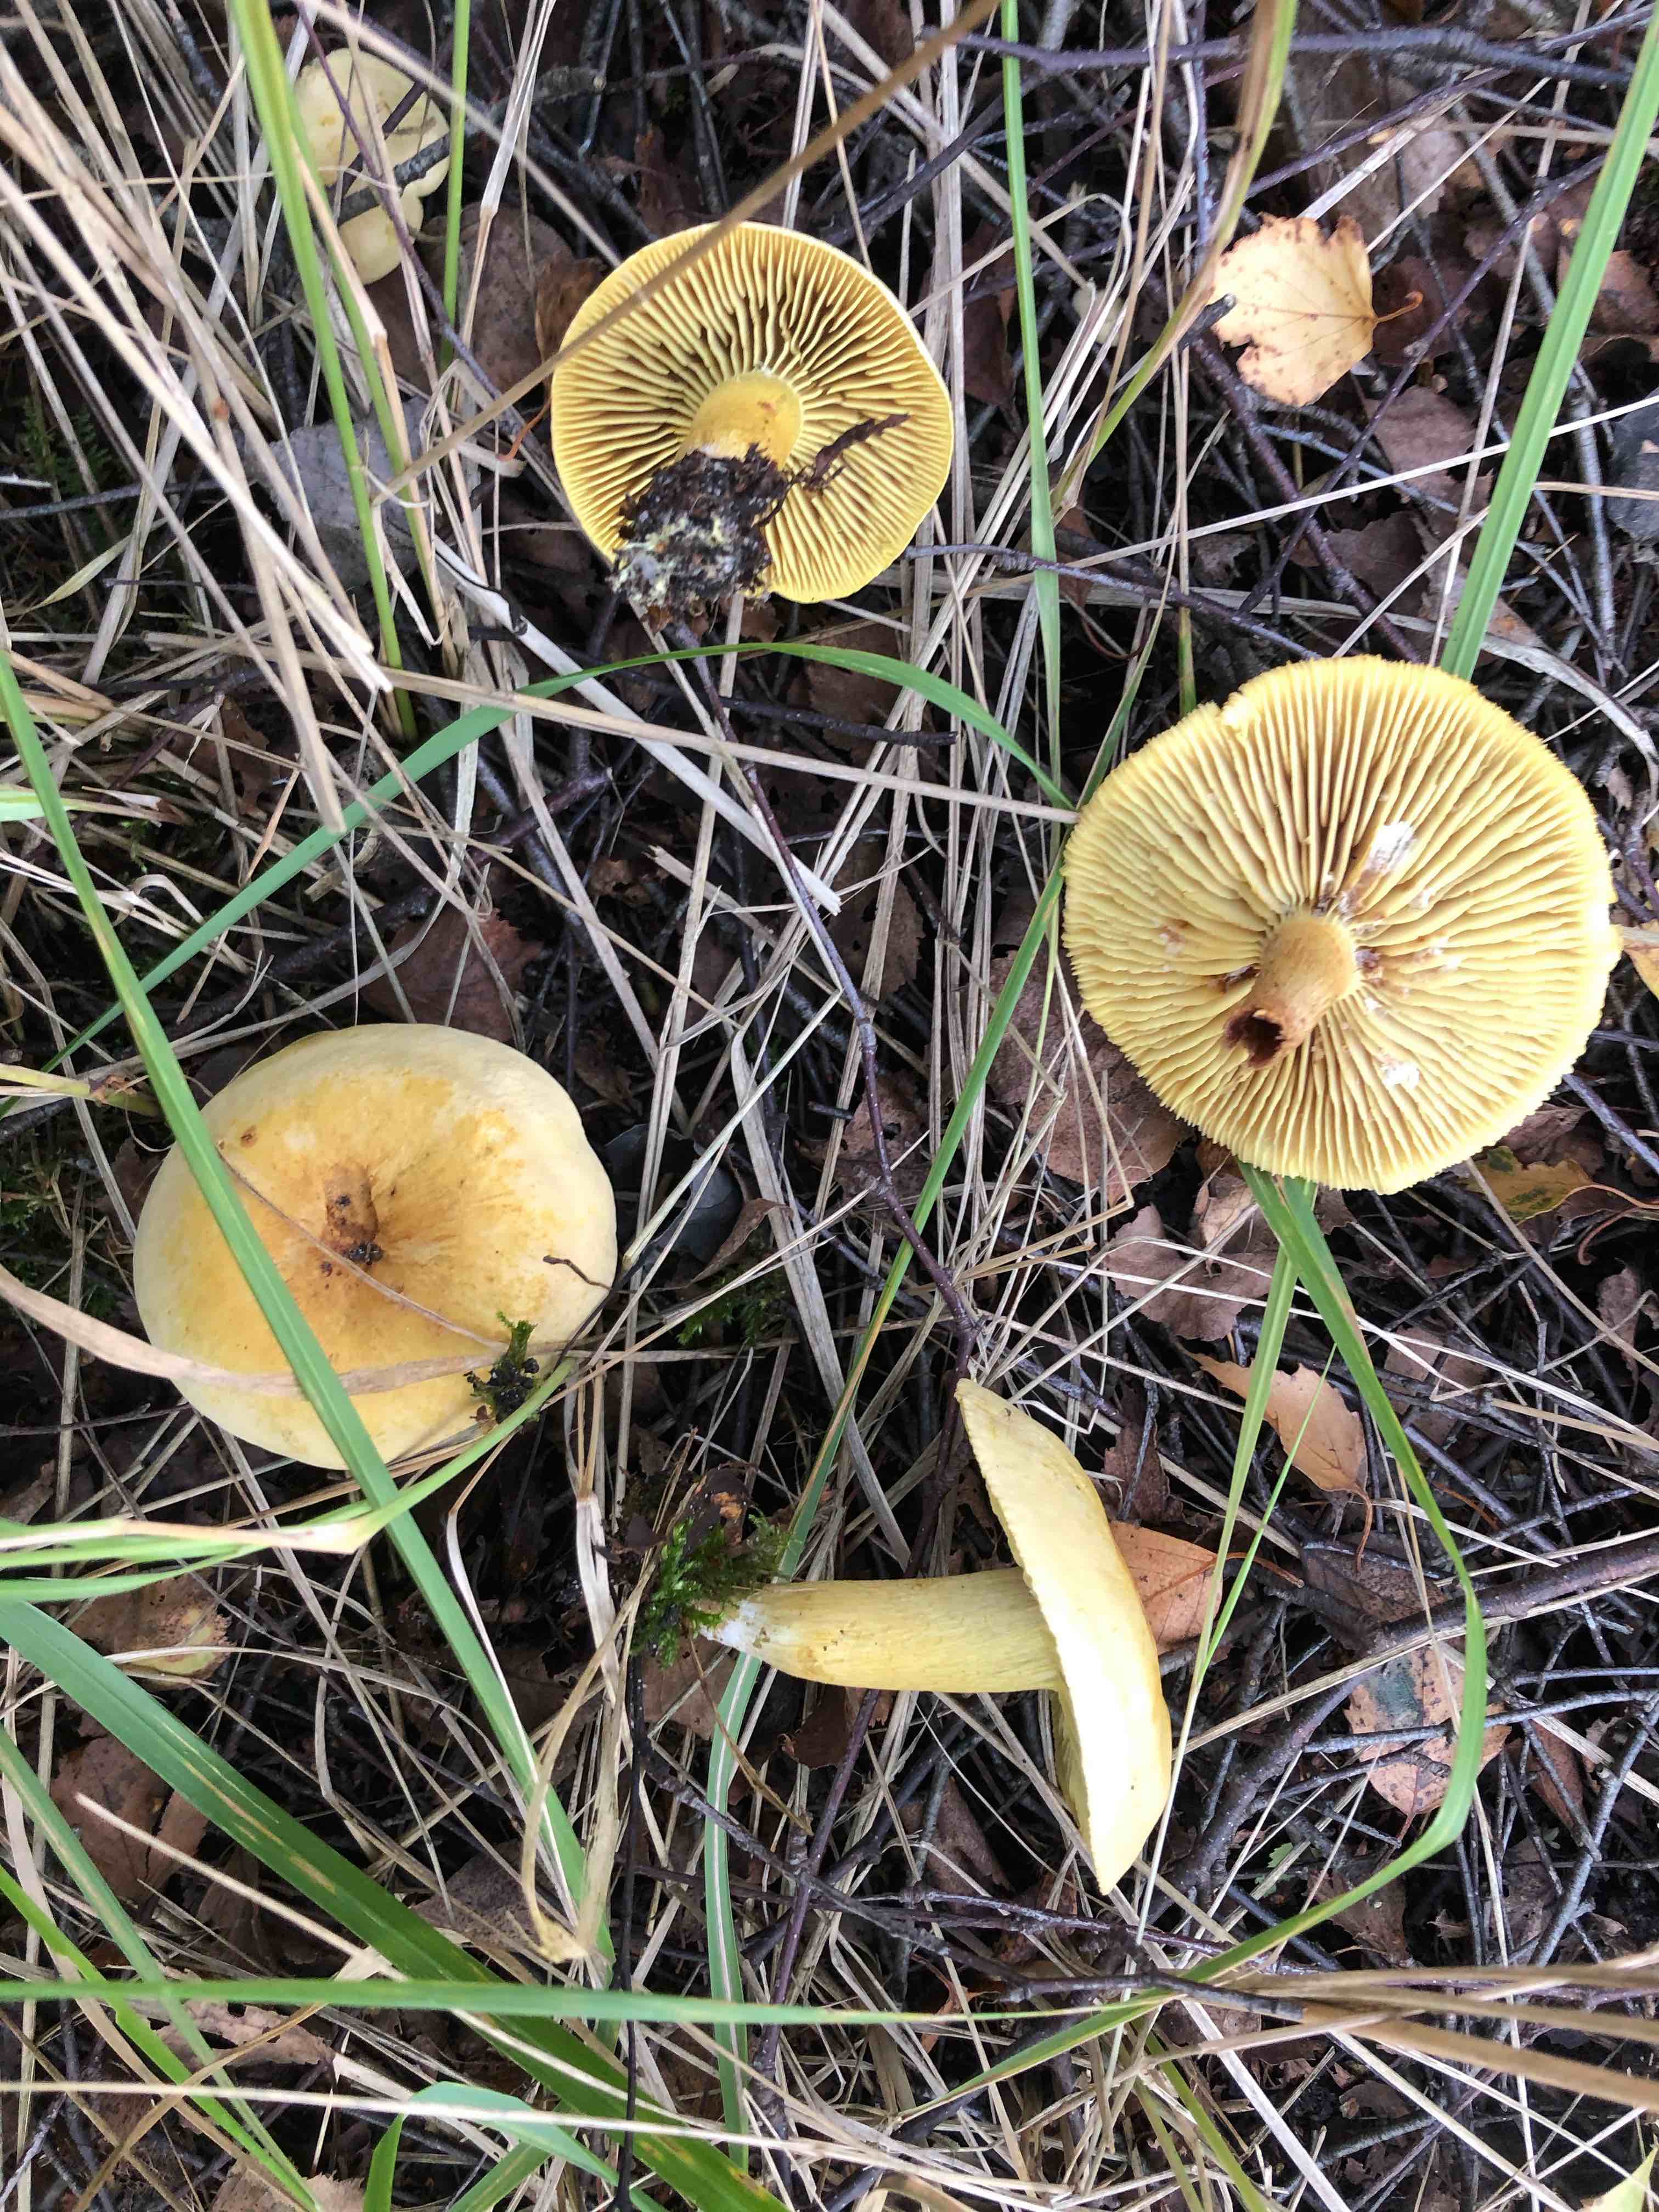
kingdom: Fungi
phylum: Basidiomycota
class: Agaricomycetes
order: Agaricales
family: Tricholomataceae
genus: Tricholoma
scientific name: Tricholoma sulphureum
